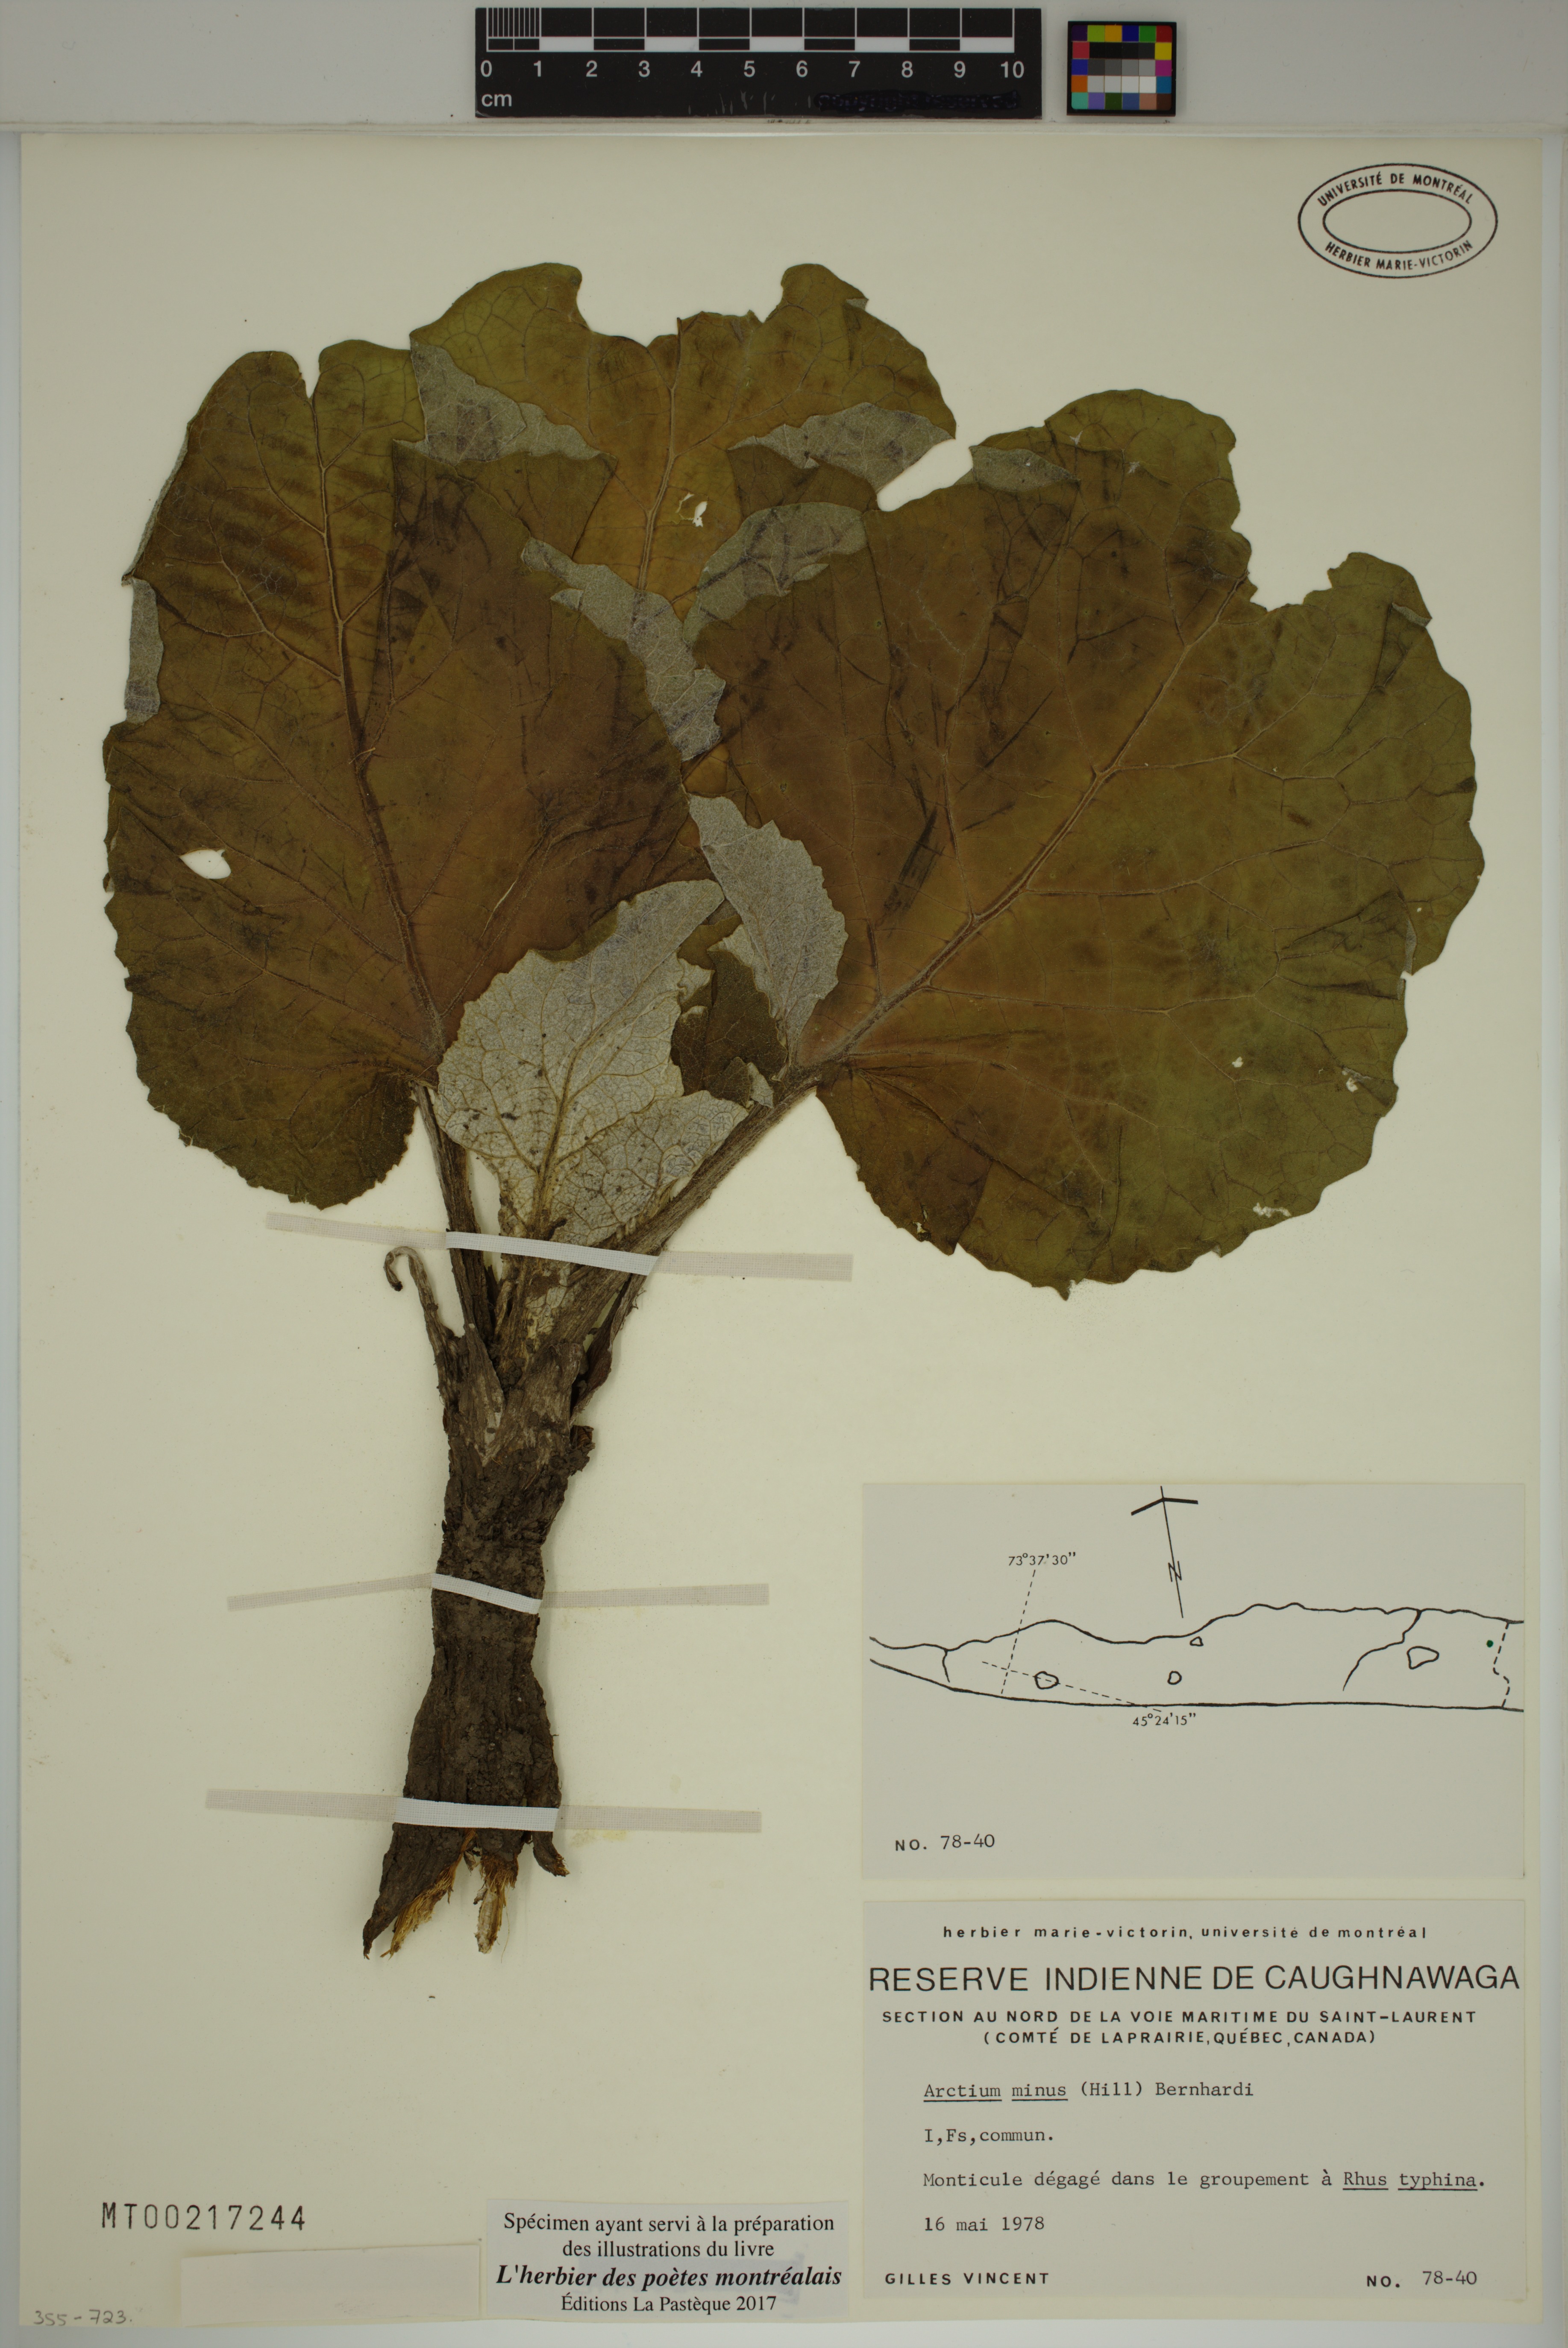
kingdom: Plantae
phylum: Tracheophyta
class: Magnoliopsida
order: Asterales
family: Asteraceae
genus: Arctium
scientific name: Arctium minus
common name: Lesser burdock
